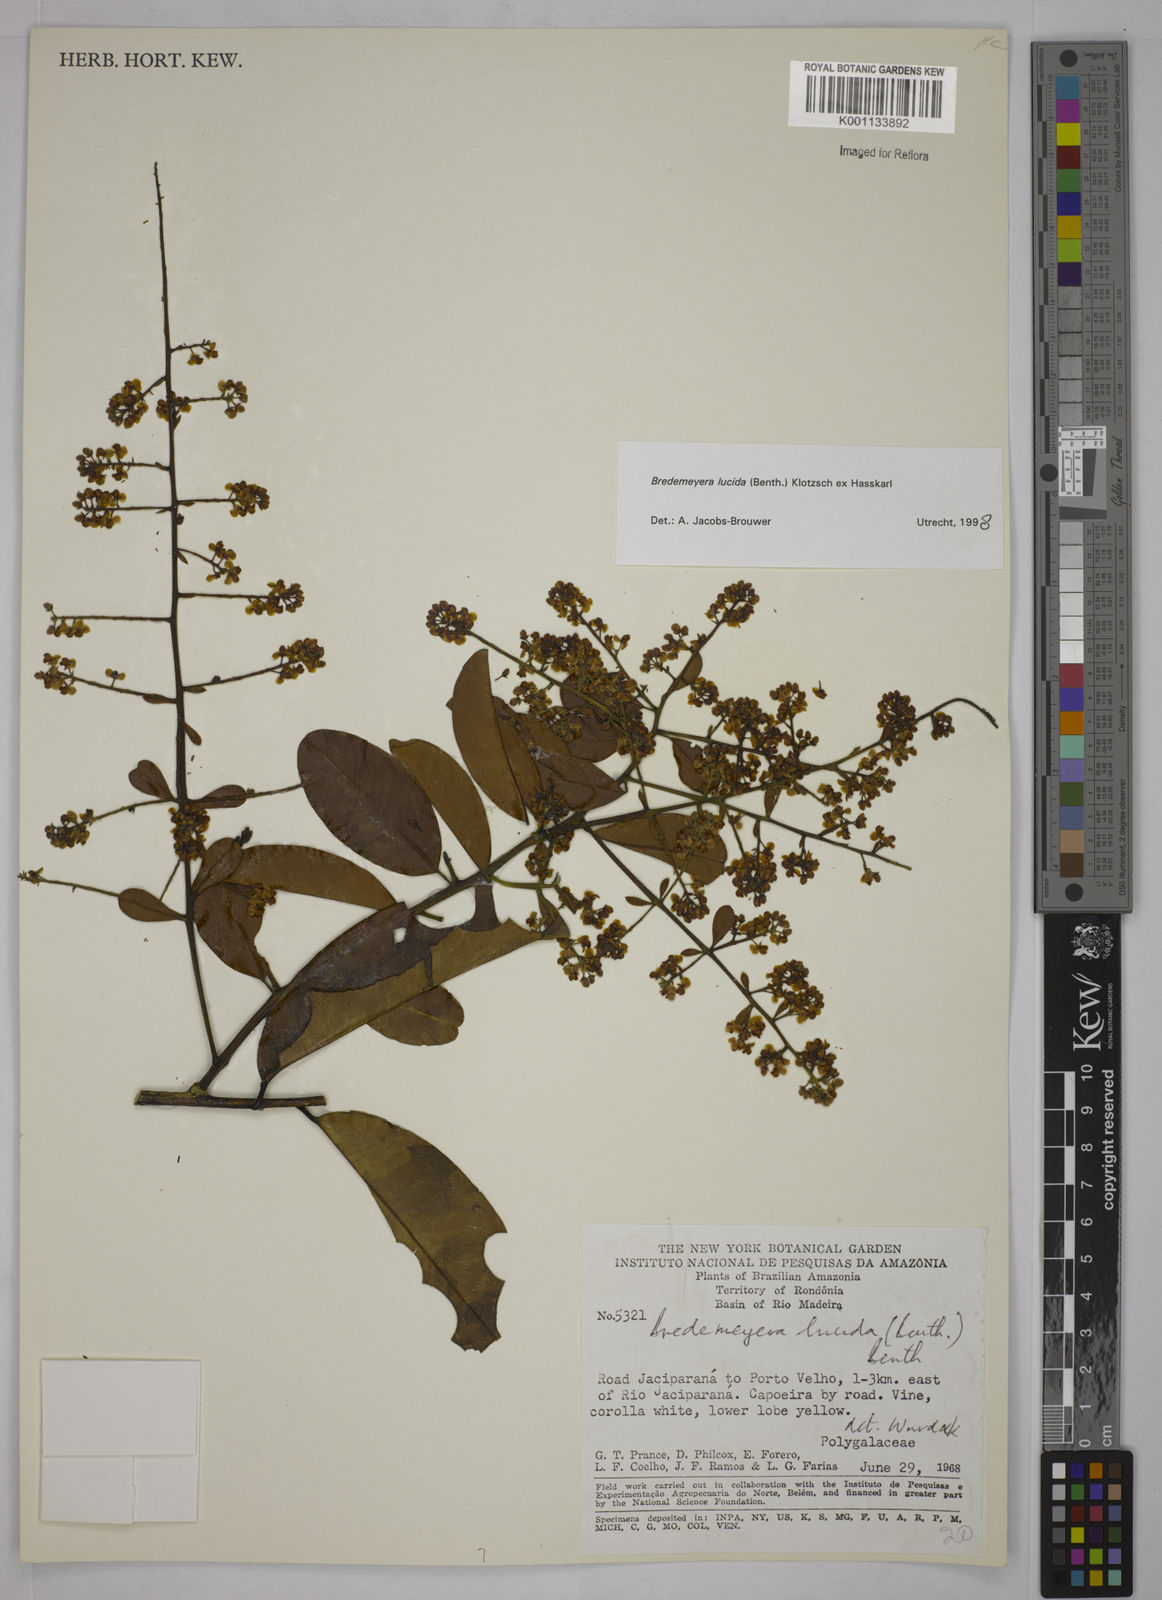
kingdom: Plantae
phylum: Tracheophyta
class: Magnoliopsida
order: Fabales
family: Polygalaceae
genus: Bredemeyera
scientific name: Bredemeyera lucida
